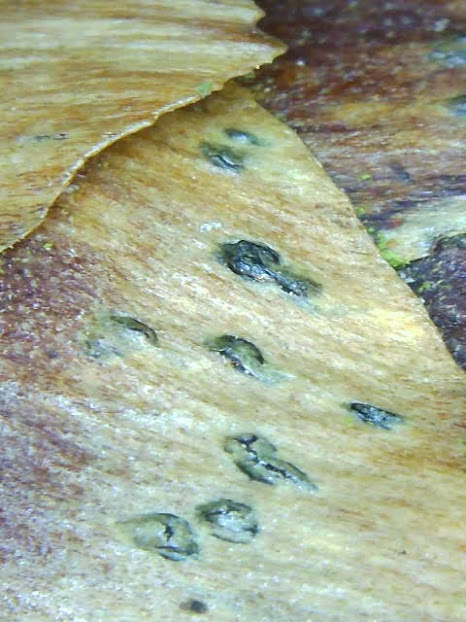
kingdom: Fungi
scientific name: Fungi
